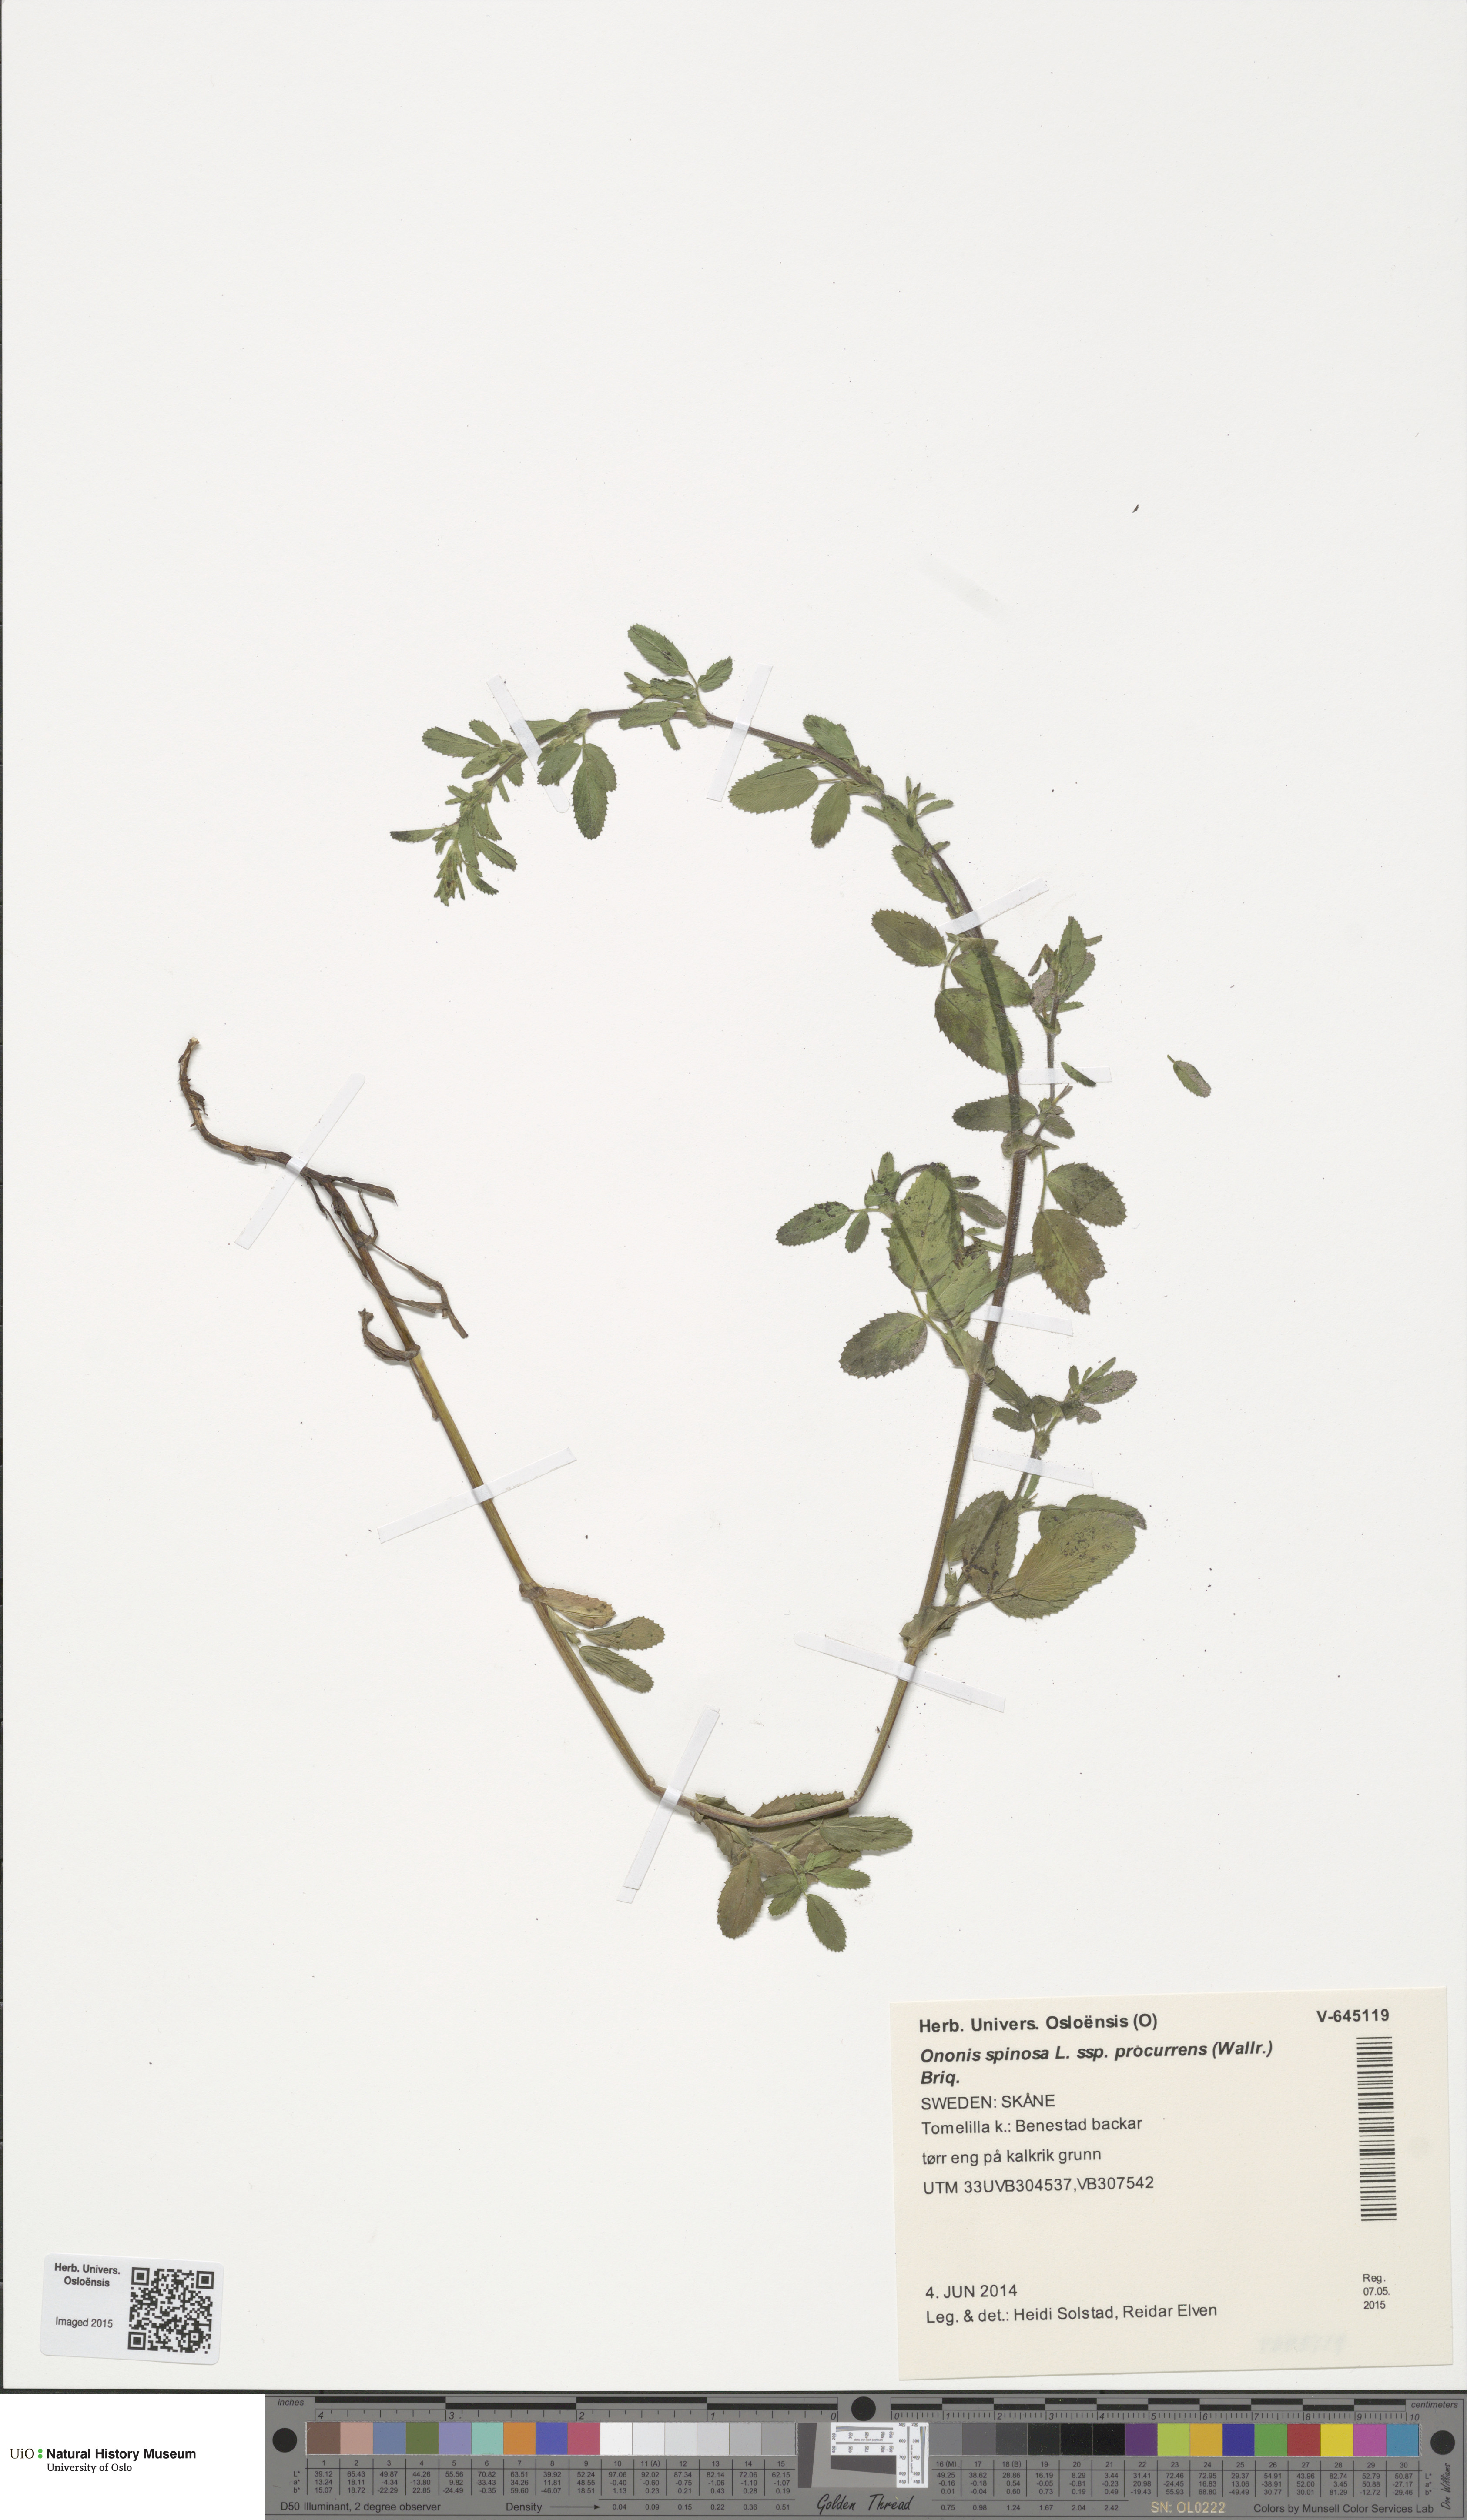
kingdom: Plantae
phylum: Tracheophyta
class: Magnoliopsida
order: Fabales
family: Fabaceae
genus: Ononis
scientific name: Ononis spinosa
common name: Spiny restharrow
